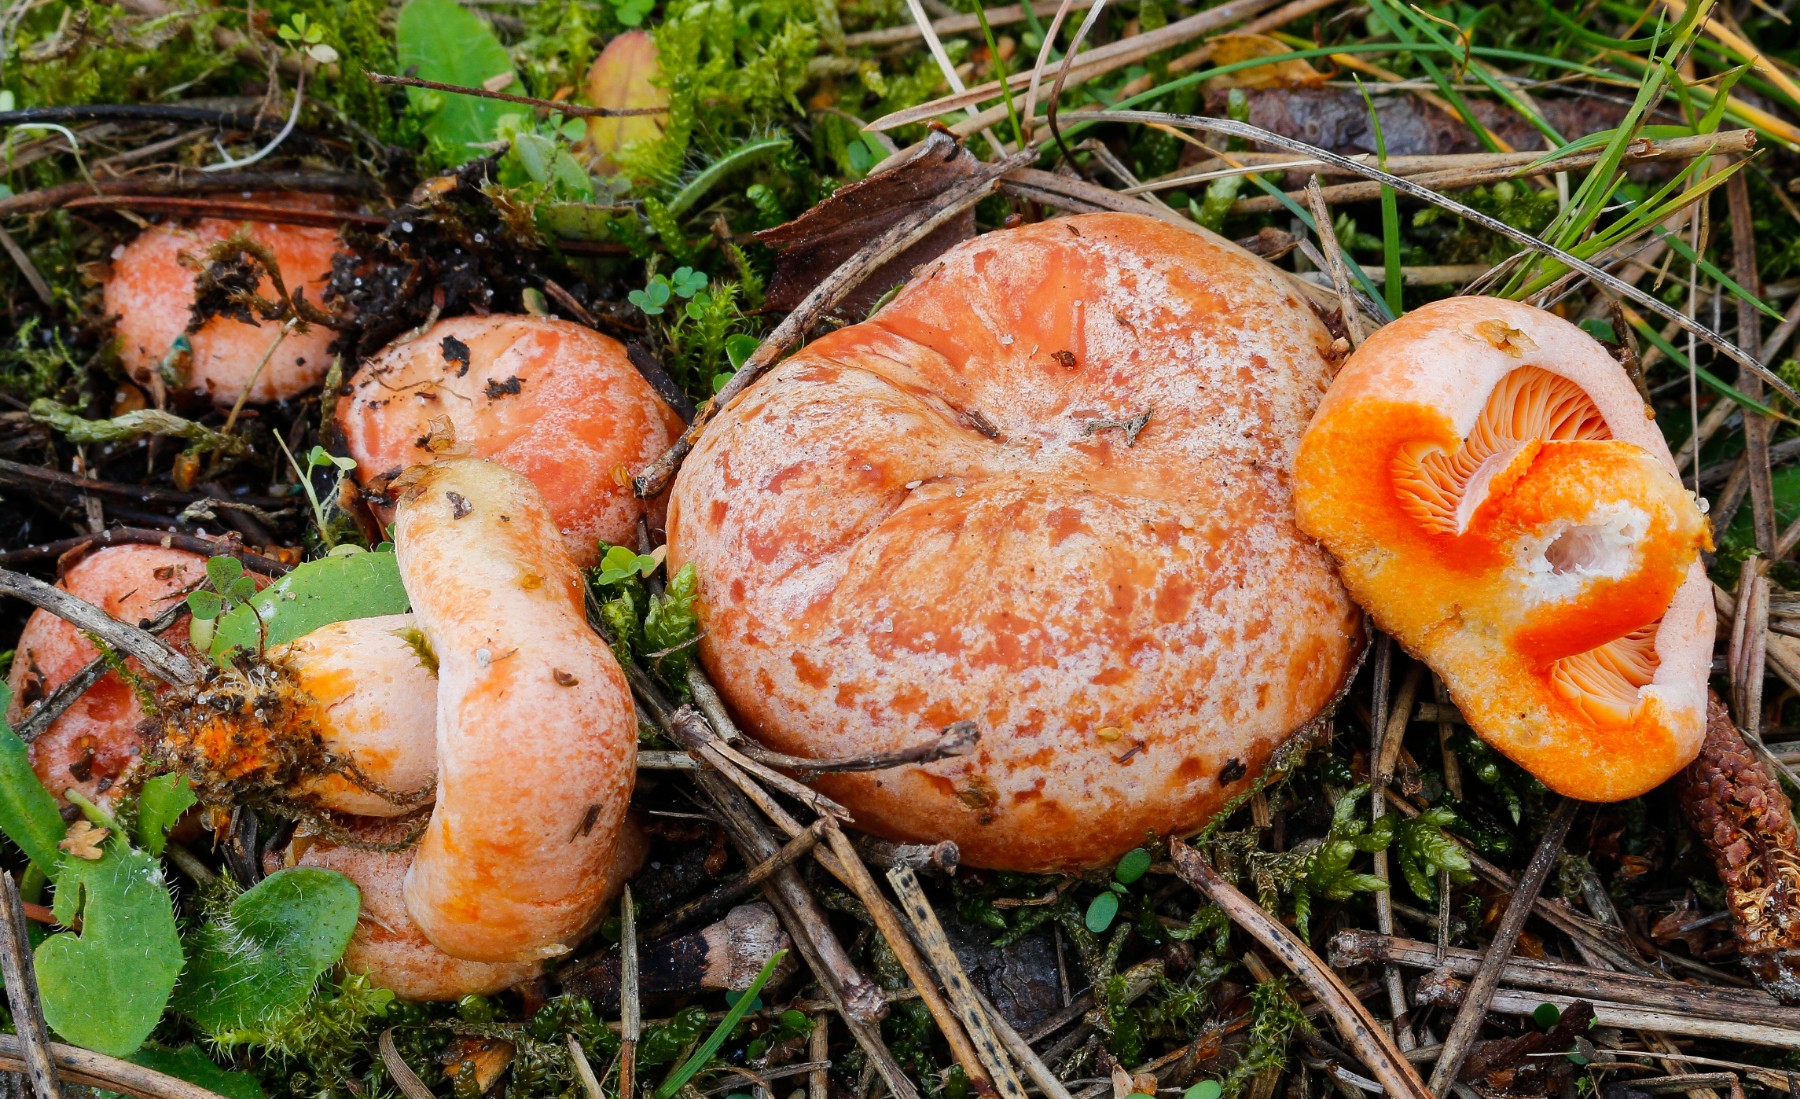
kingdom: Fungi
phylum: Basidiomycota
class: Agaricomycetes
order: Russulales
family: Russulaceae
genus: Lactarius
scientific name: Lactarius deliciosus
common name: velsmagende mælkehat
